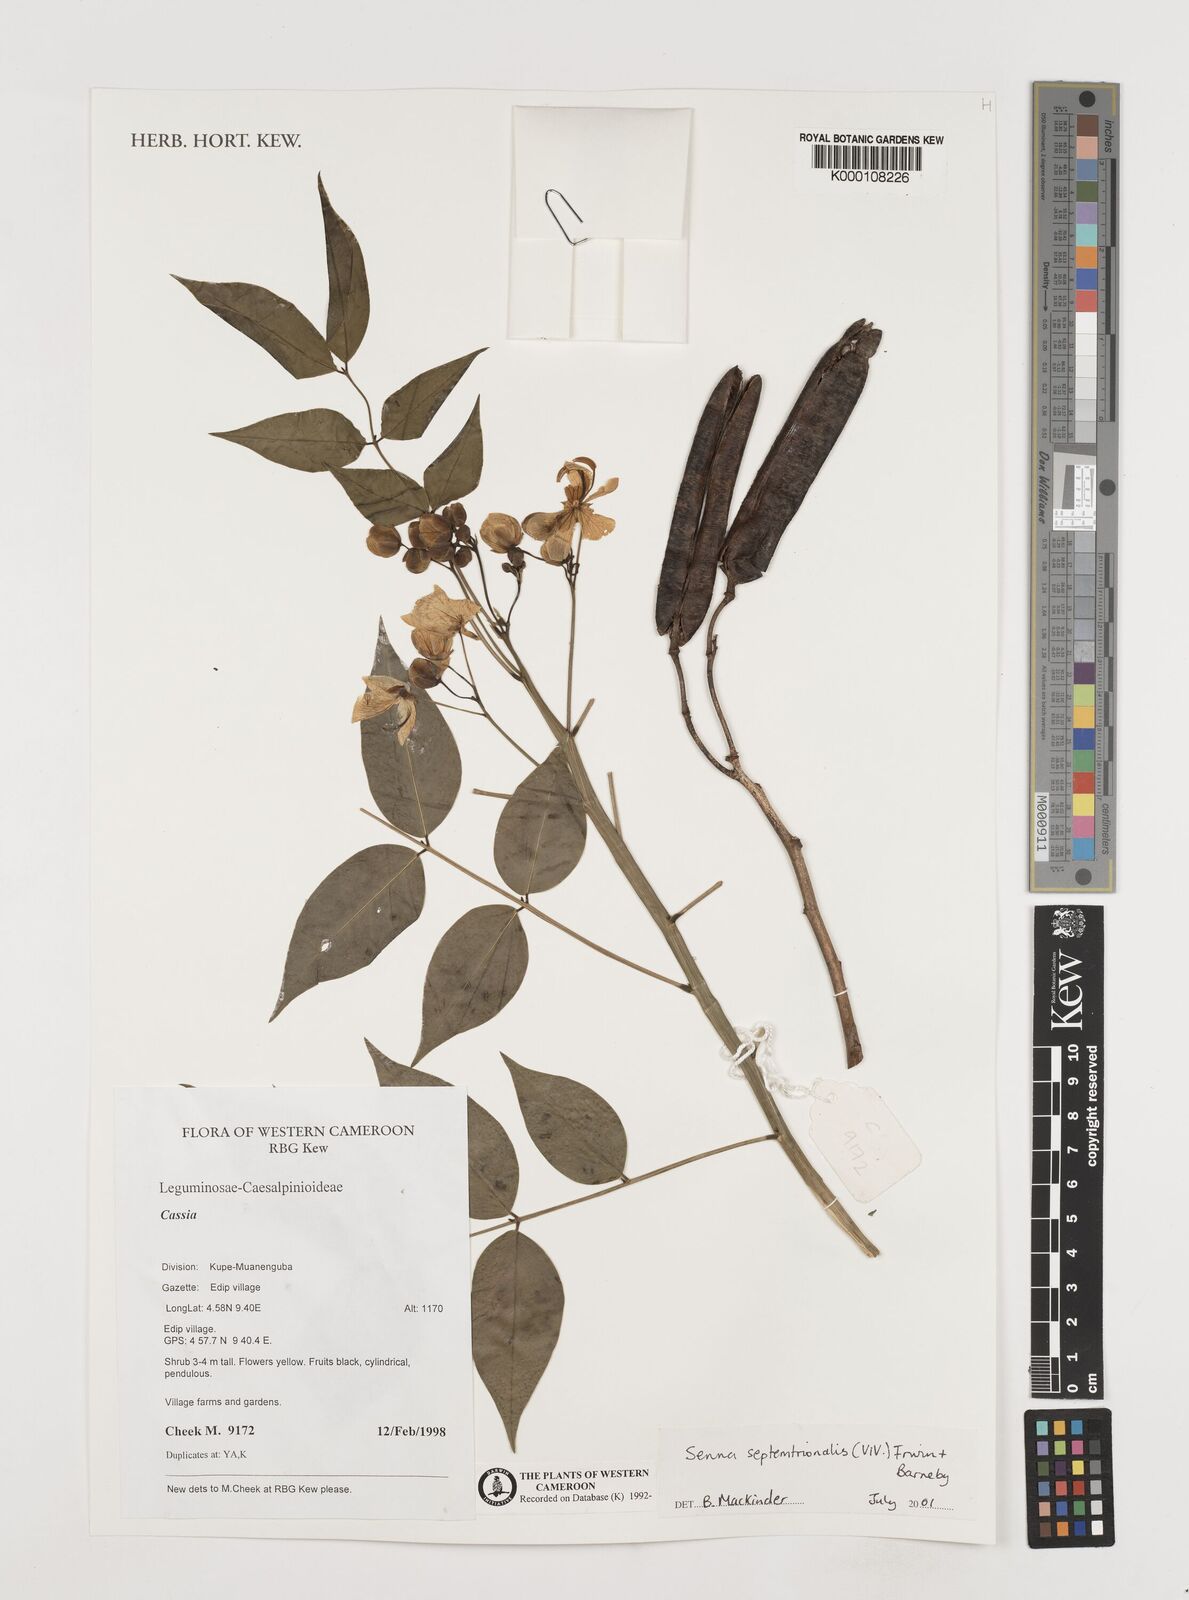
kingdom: Plantae
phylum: Tracheophyta
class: Magnoliopsida
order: Fabales
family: Fabaceae
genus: Senna
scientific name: Senna septemtrionalis
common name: Arsenic bush
